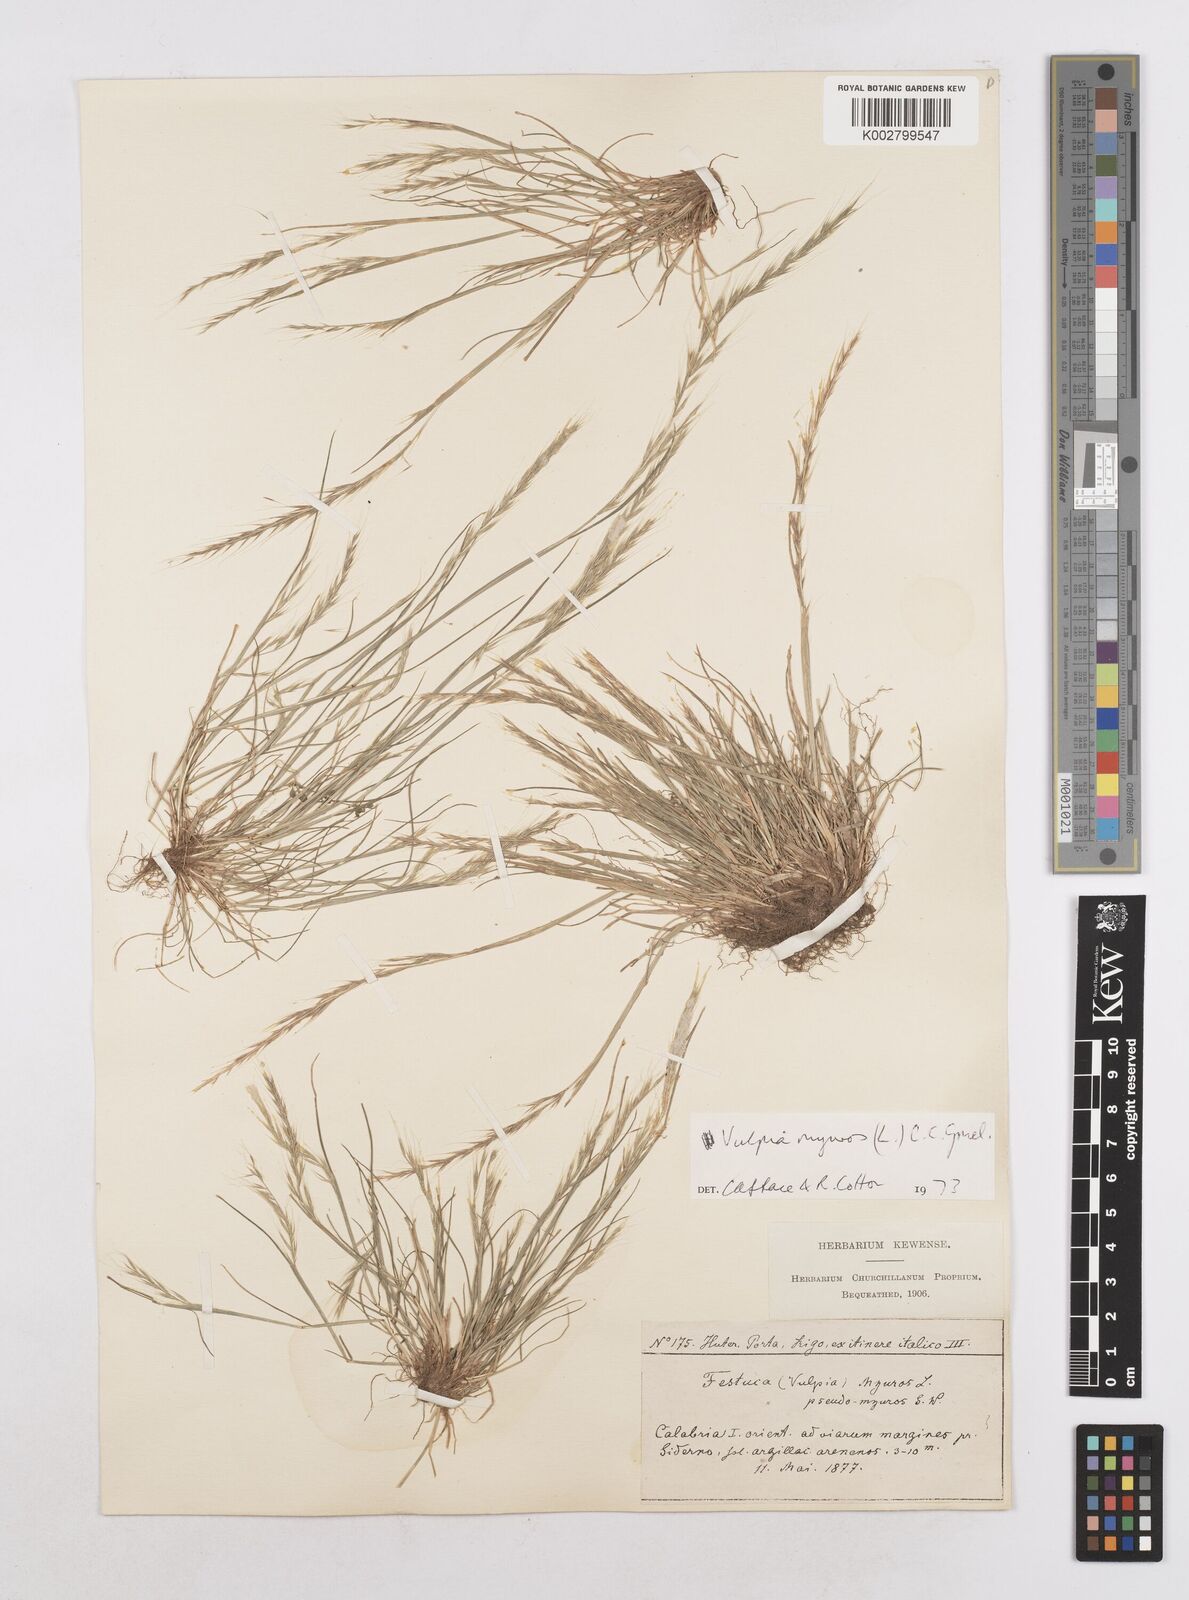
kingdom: Plantae
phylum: Tracheophyta
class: Liliopsida
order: Poales
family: Poaceae
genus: Festuca
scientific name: Festuca myuros
